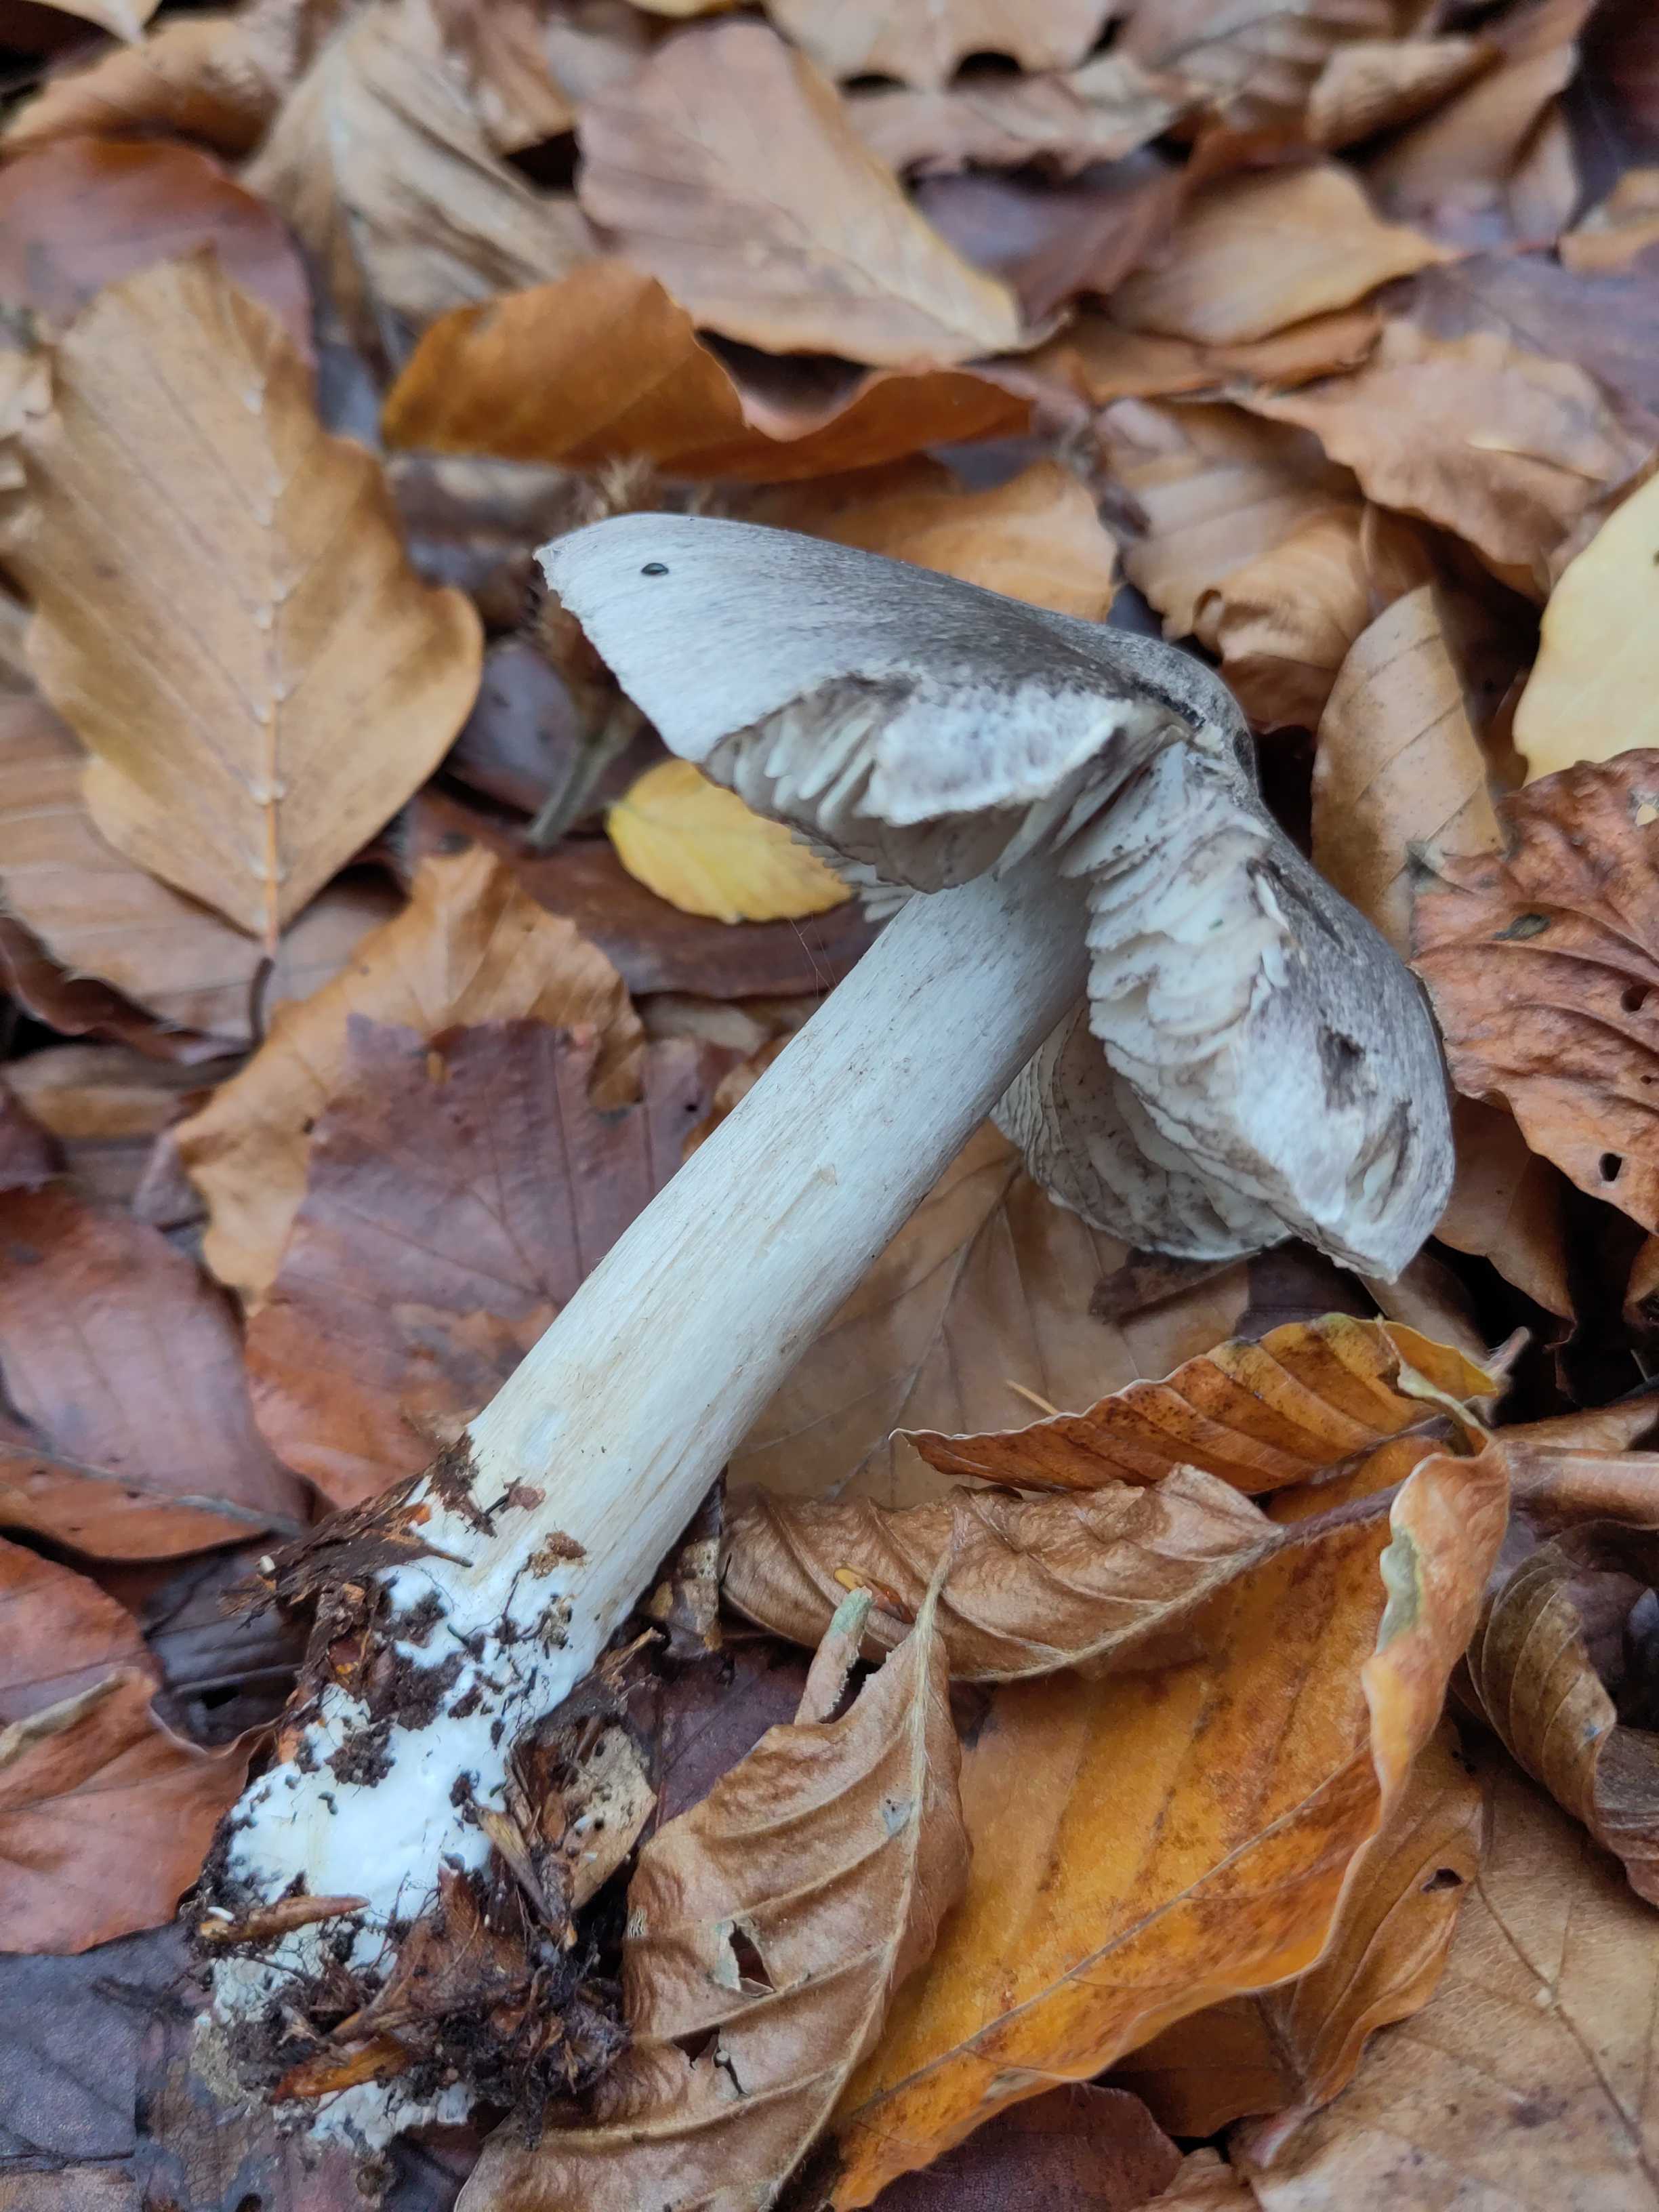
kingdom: Fungi
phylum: Basidiomycota
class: Agaricomycetes
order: Agaricales
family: Tricholomataceae
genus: Tricholoma
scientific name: Tricholoma sciodes
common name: stribet ridderhat
